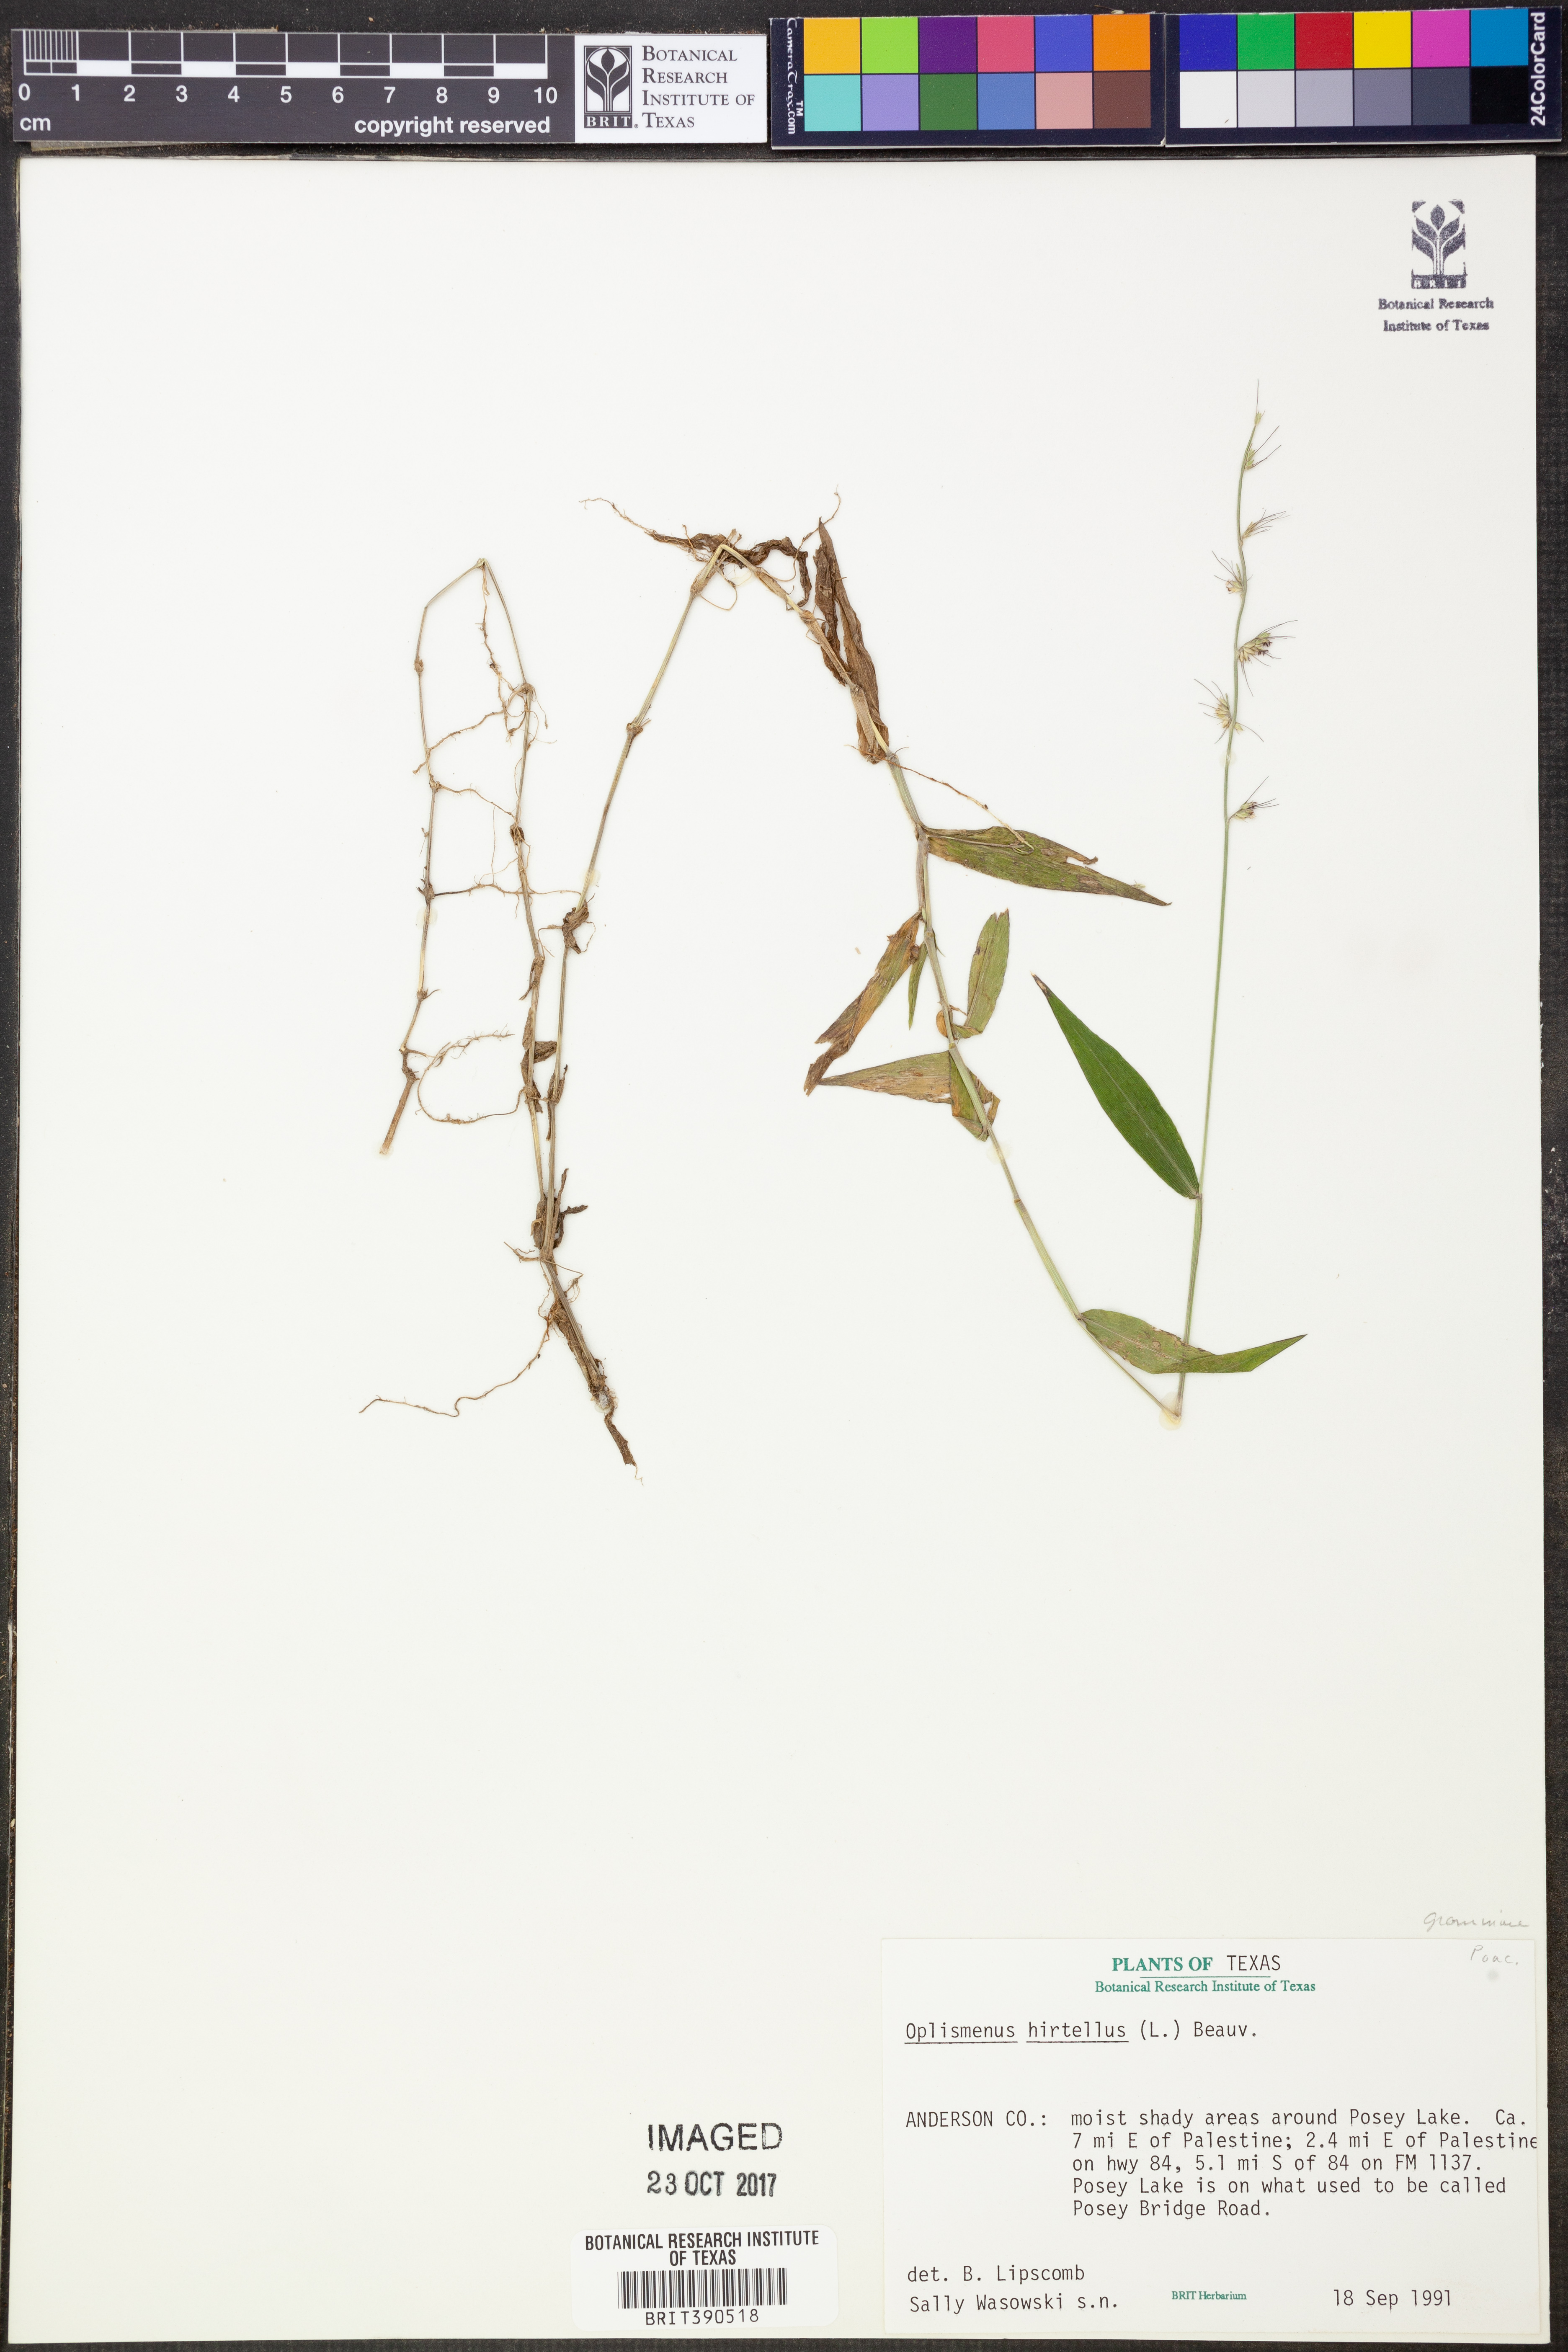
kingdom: Plantae
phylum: Tracheophyta
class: Liliopsida
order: Poales
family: Poaceae
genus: Oplismenus
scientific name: Oplismenus hirtellus
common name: Basketgrass
